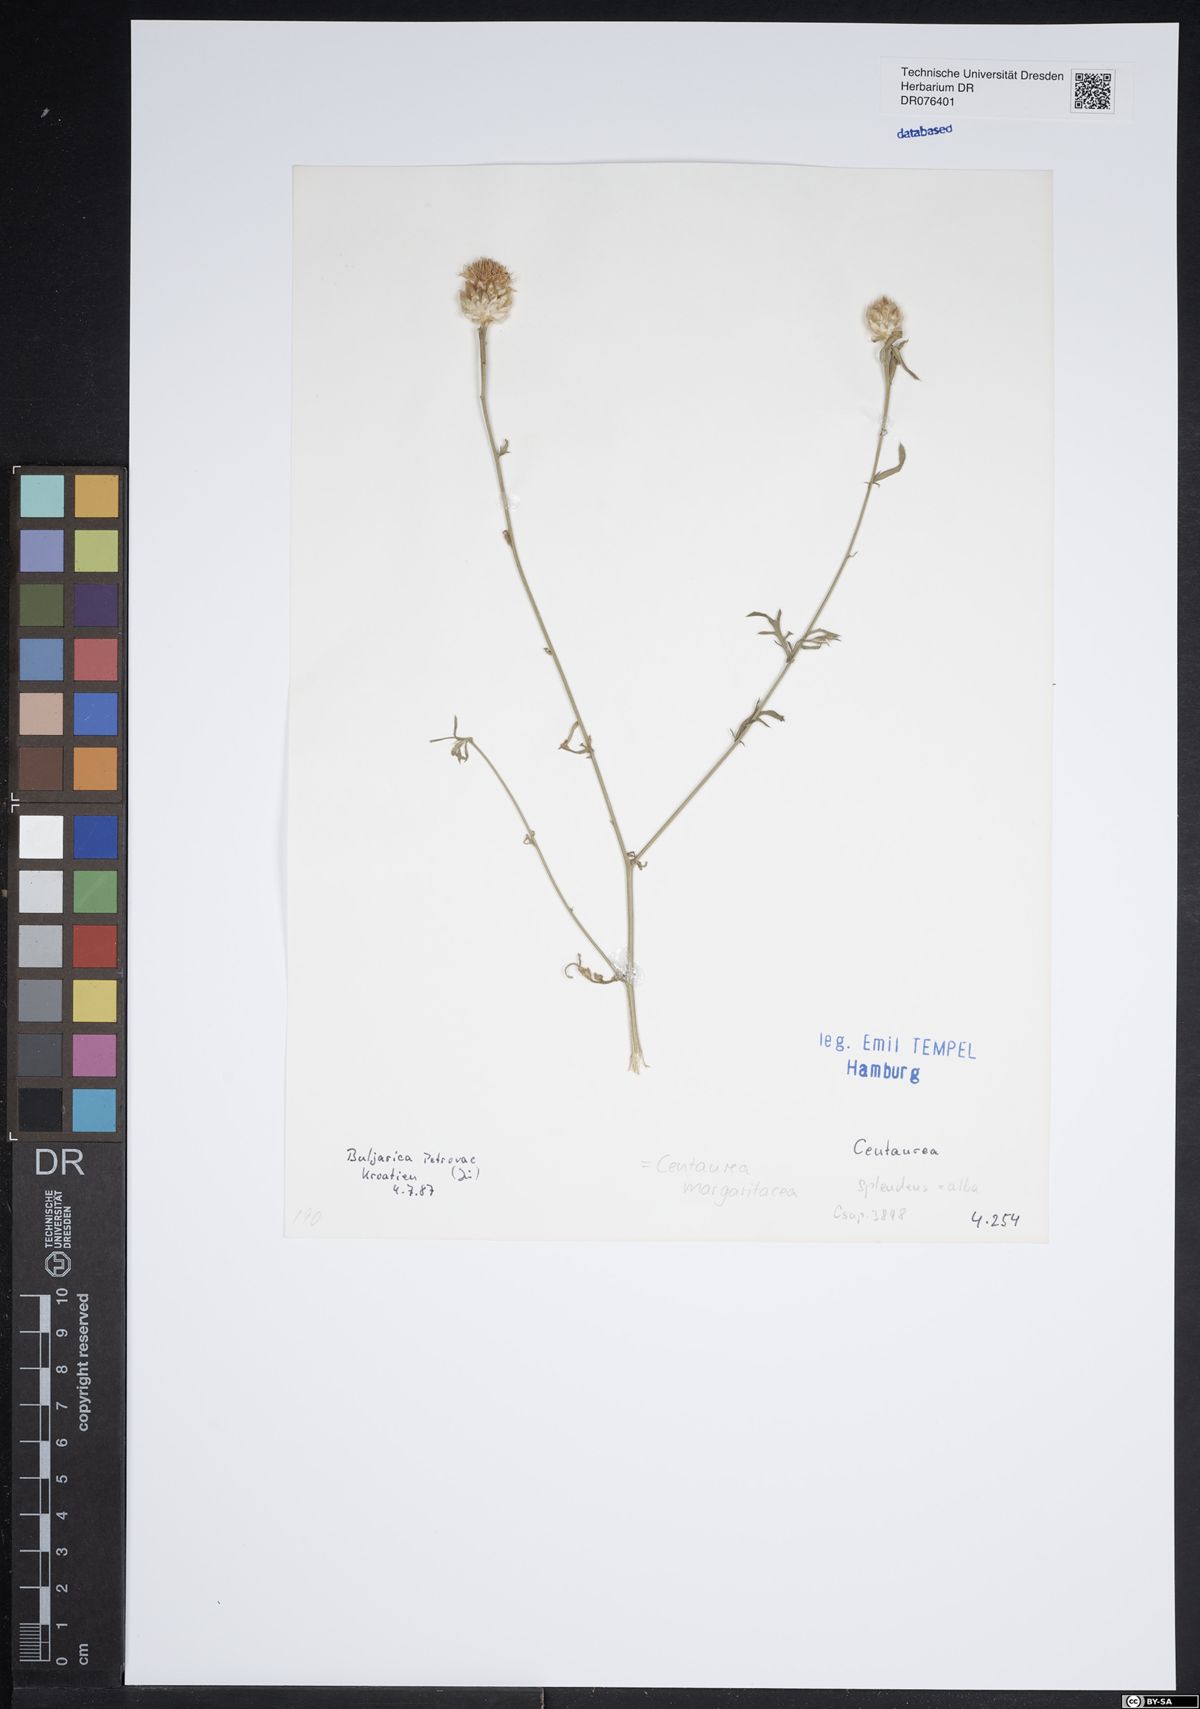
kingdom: Plantae
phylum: Tracheophyta
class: Magnoliopsida
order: Asterales
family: Asteraceae
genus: Centaurea
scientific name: Centaurea splendens
